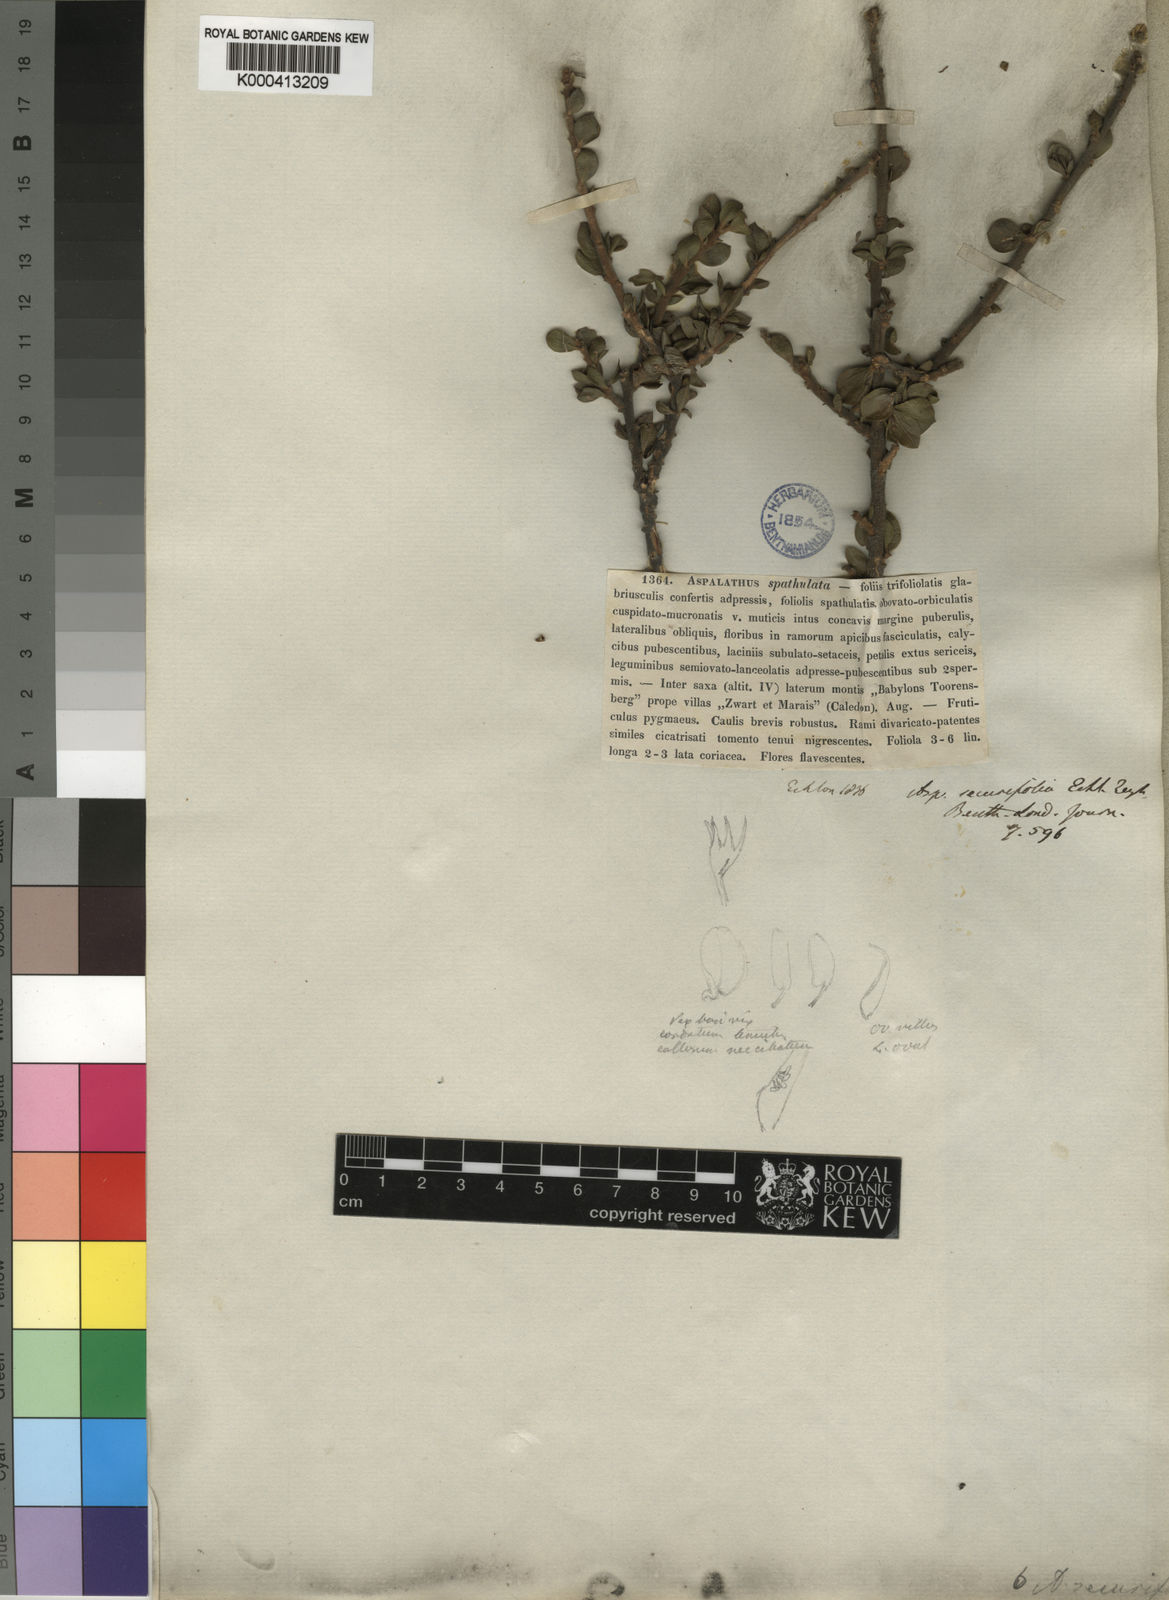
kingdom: Plantae
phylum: Tracheophyta
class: Magnoliopsida
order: Fabales
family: Fabaceae
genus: Aspalathus
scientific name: Aspalathus securifolia
